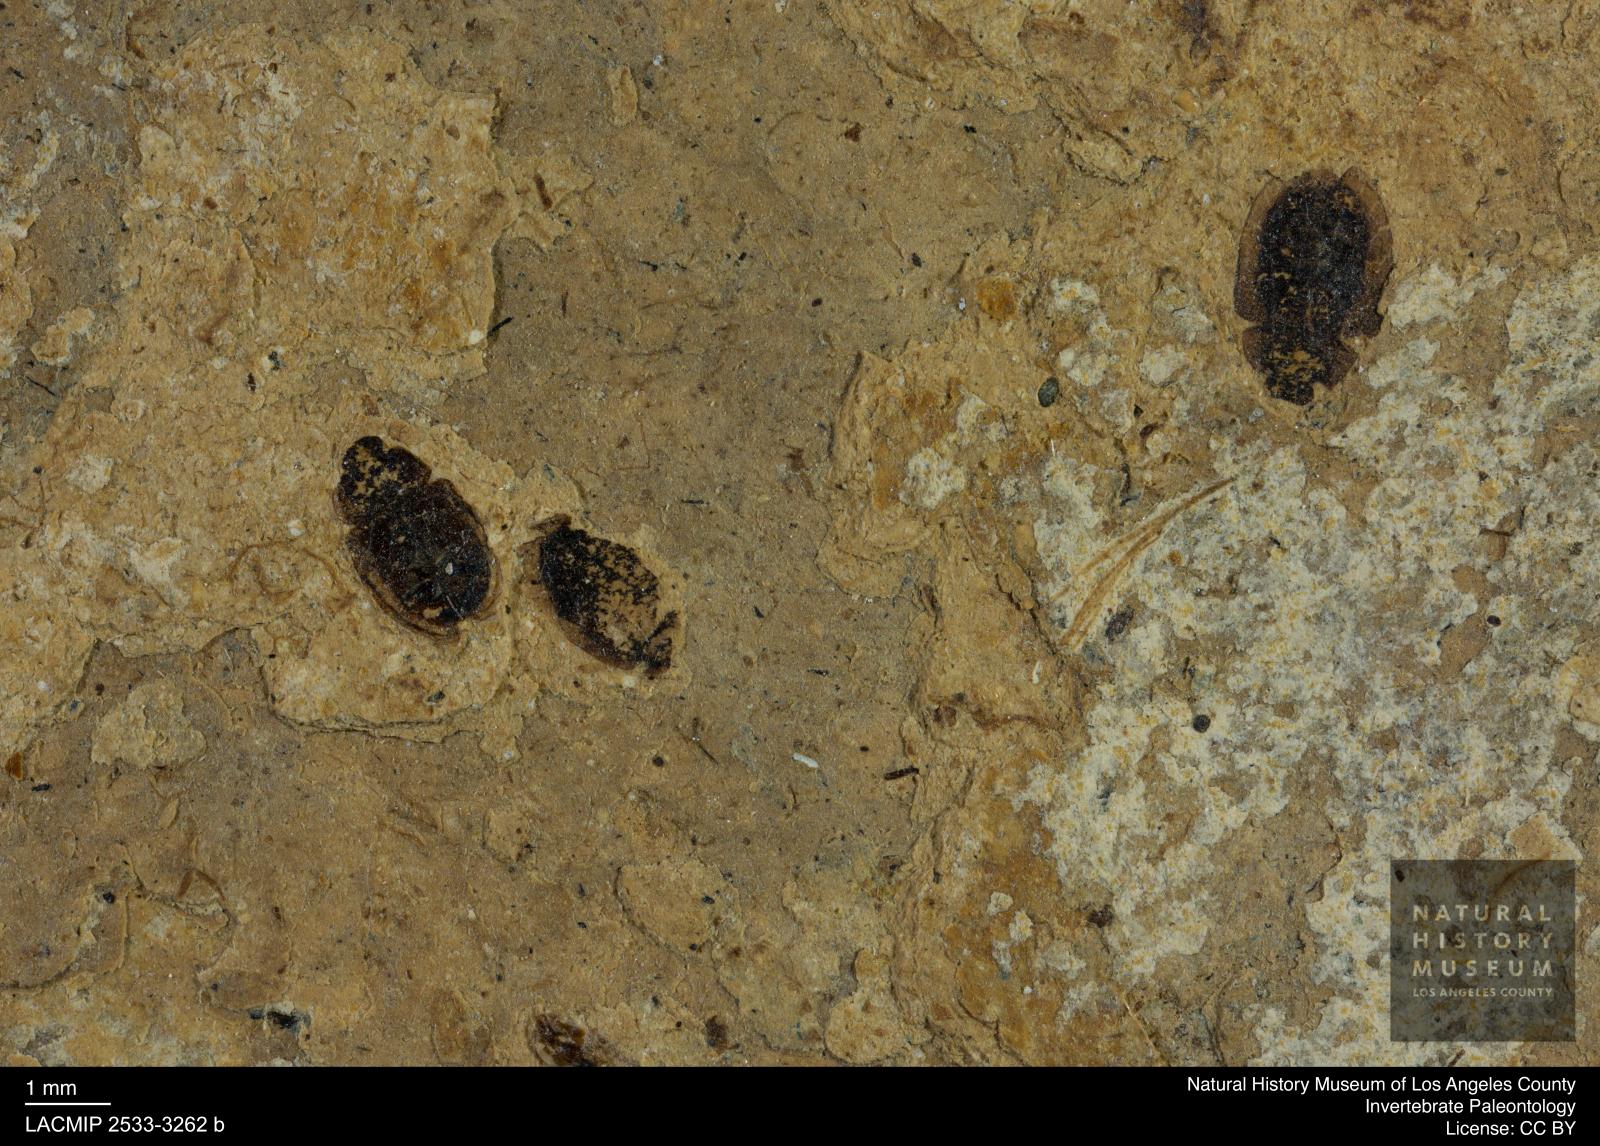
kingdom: Animalia
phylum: Arthropoda
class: Insecta
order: Coleoptera
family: Hydrophilidae
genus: Paracymus
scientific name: Paracymus excitatus
